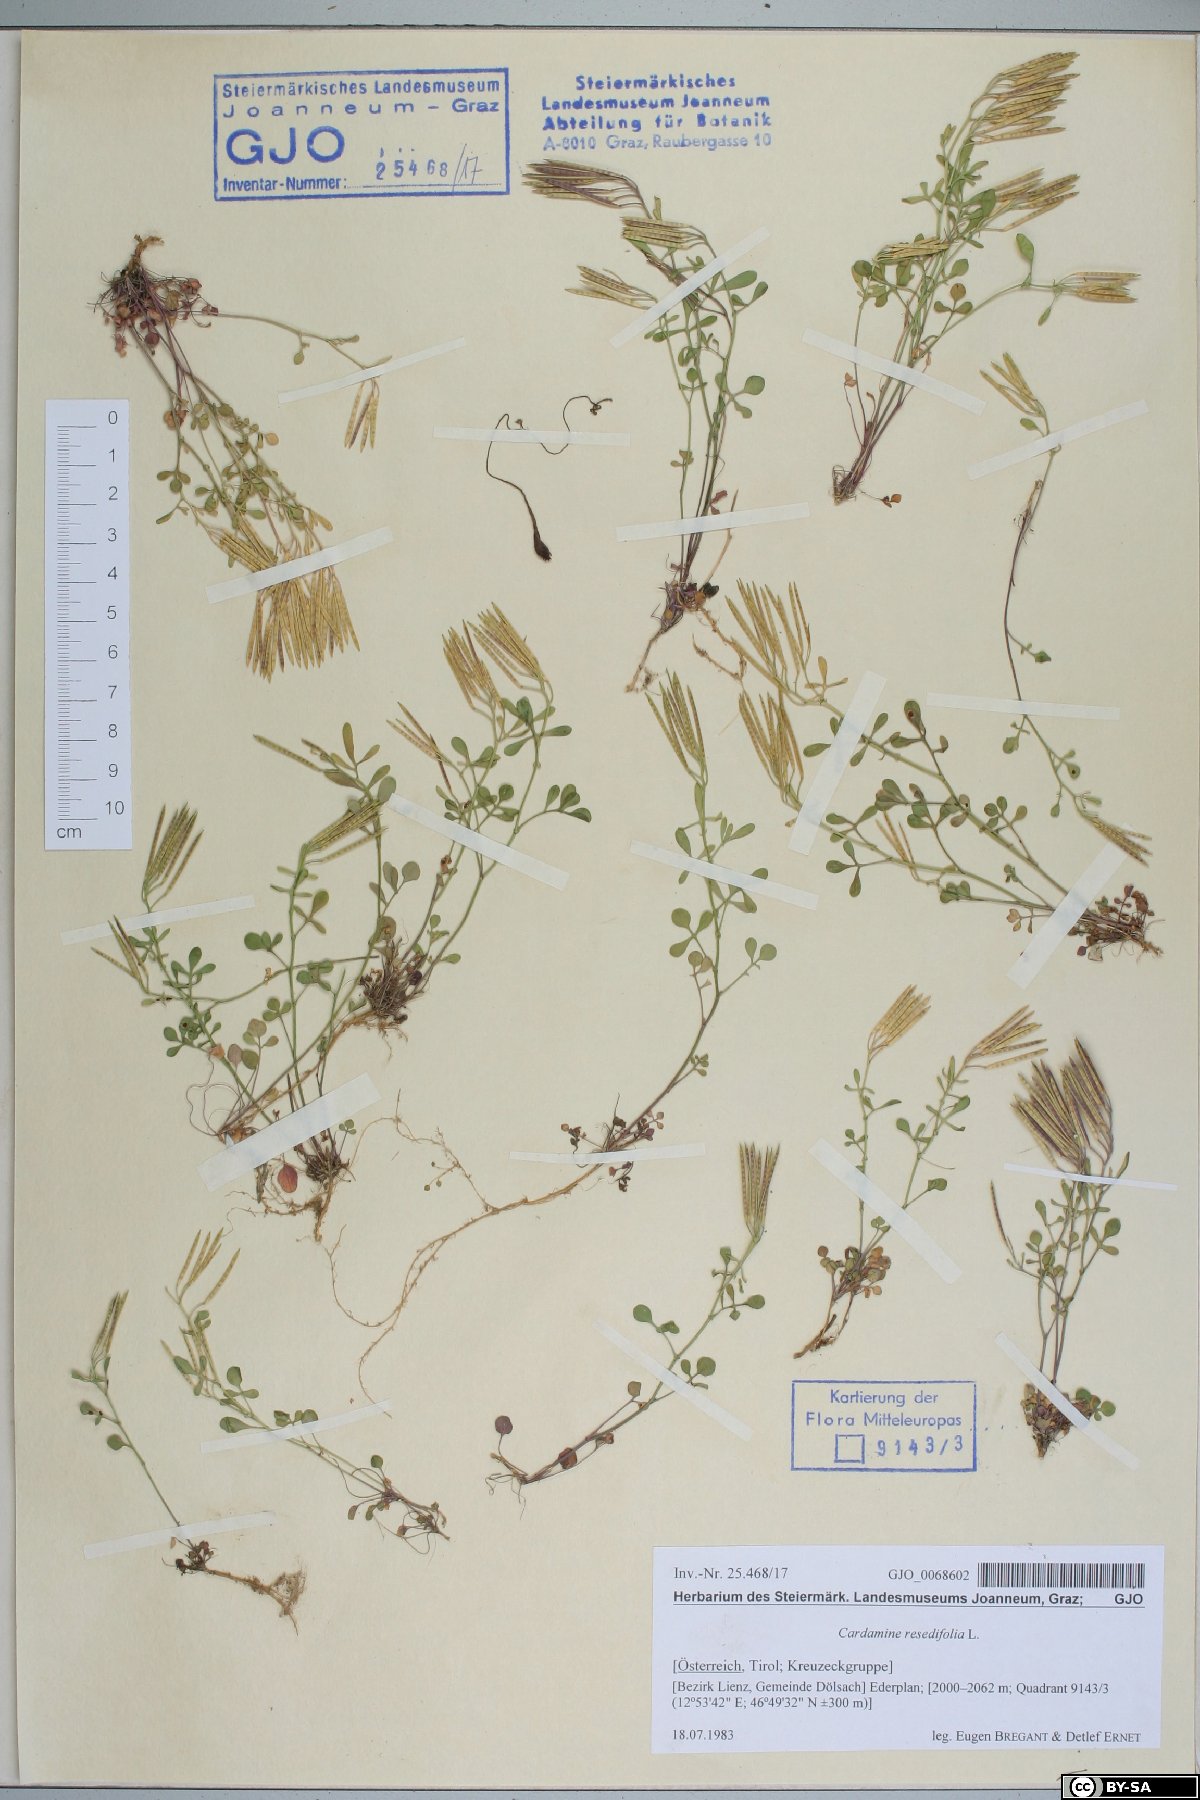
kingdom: Plantae
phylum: Tracheophyta
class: Magnoliopsida
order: Brassicales
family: Brassicaceae
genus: Cardamine
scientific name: Cardamine resedifolia
